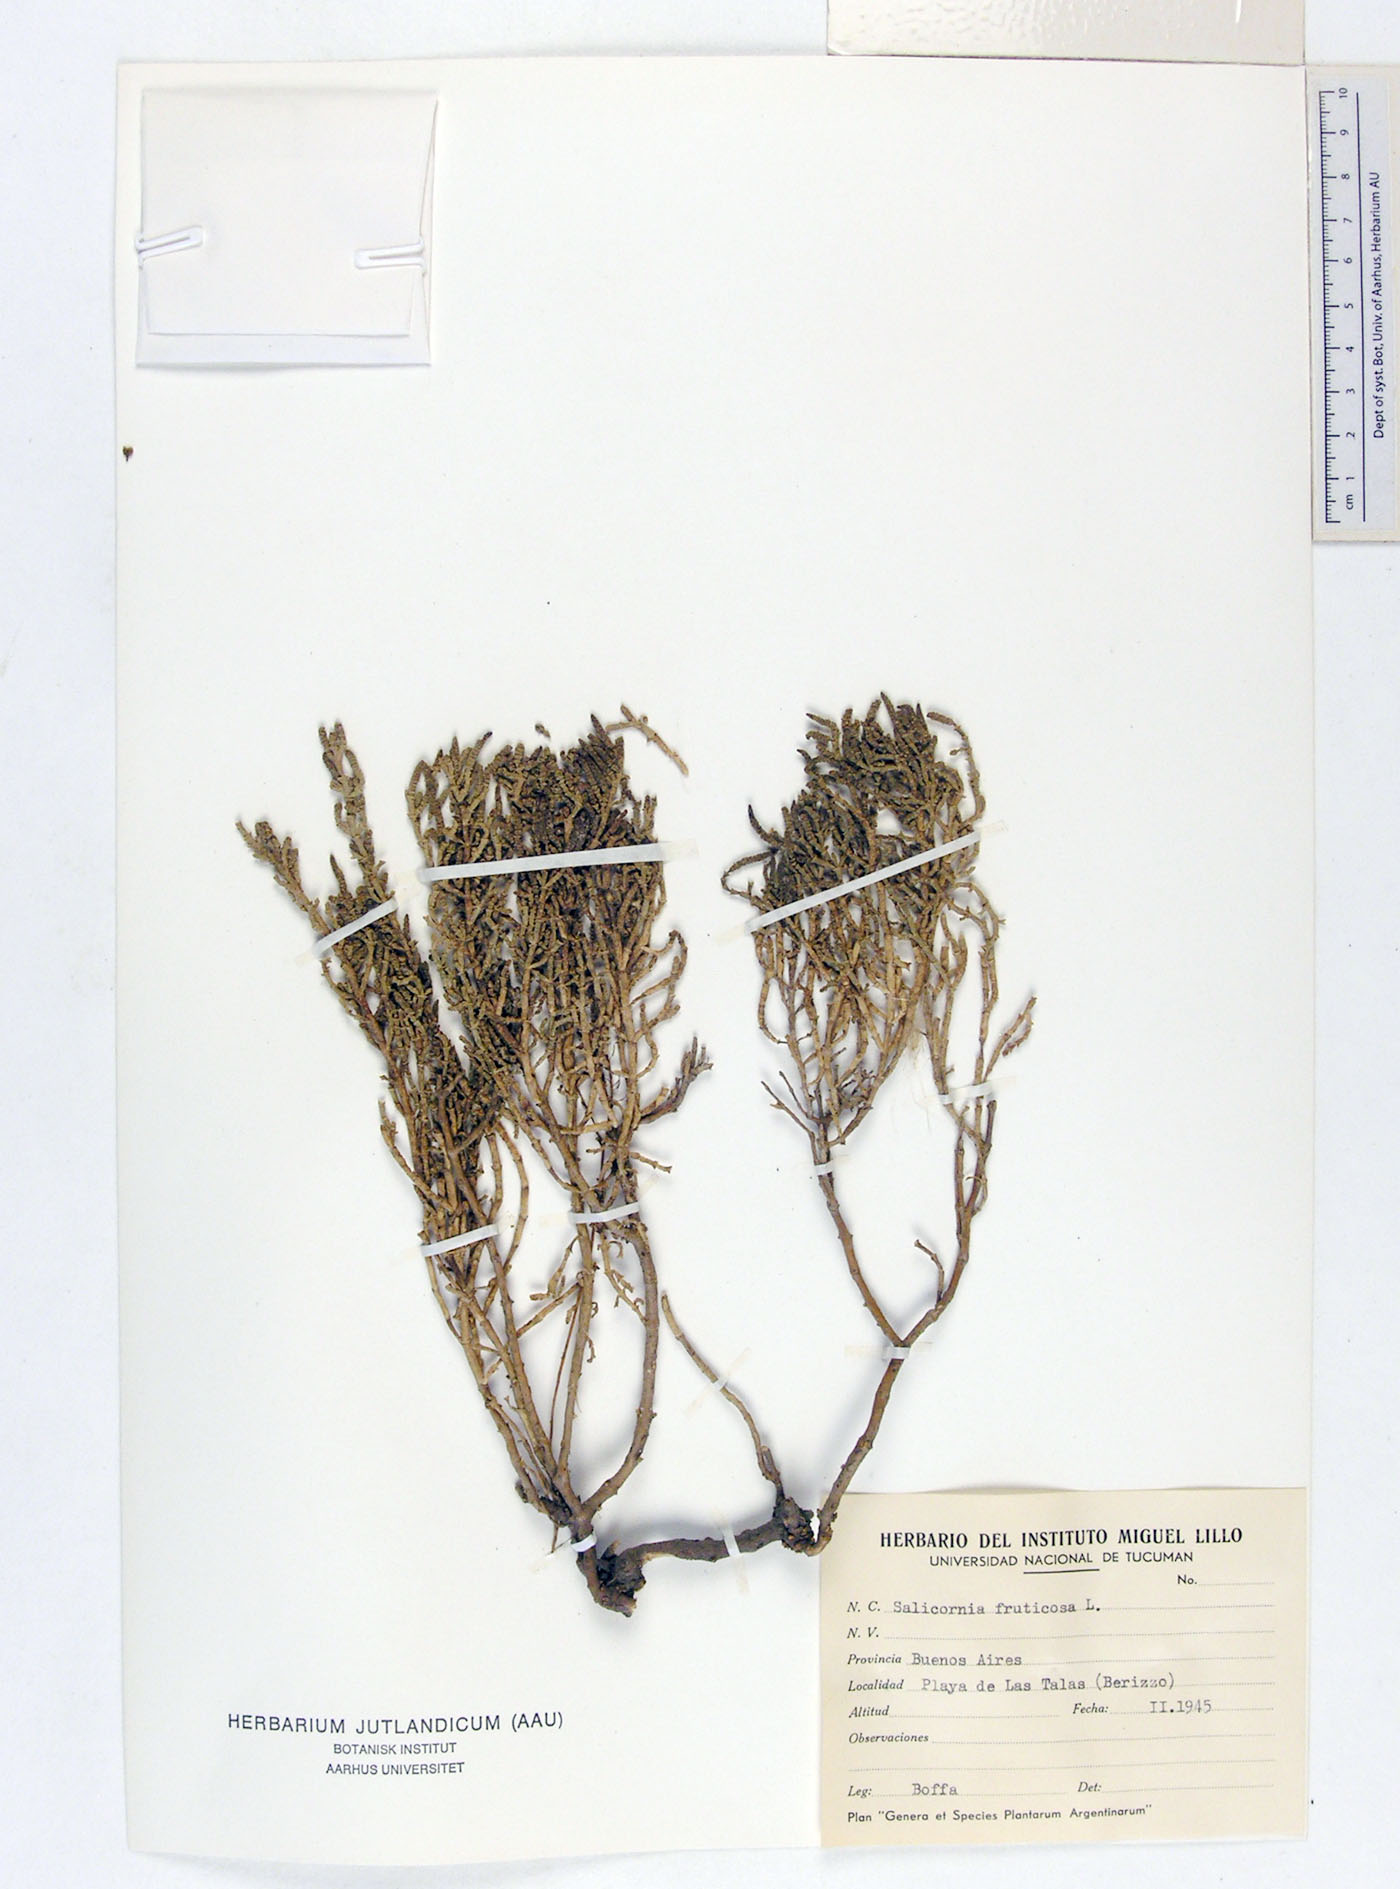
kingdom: Plantae
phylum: Tracheophyta
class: Magnoliopsida
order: Caryophyllales
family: Amaranthaceae
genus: Salicornia
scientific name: Salicornia fruticosa
